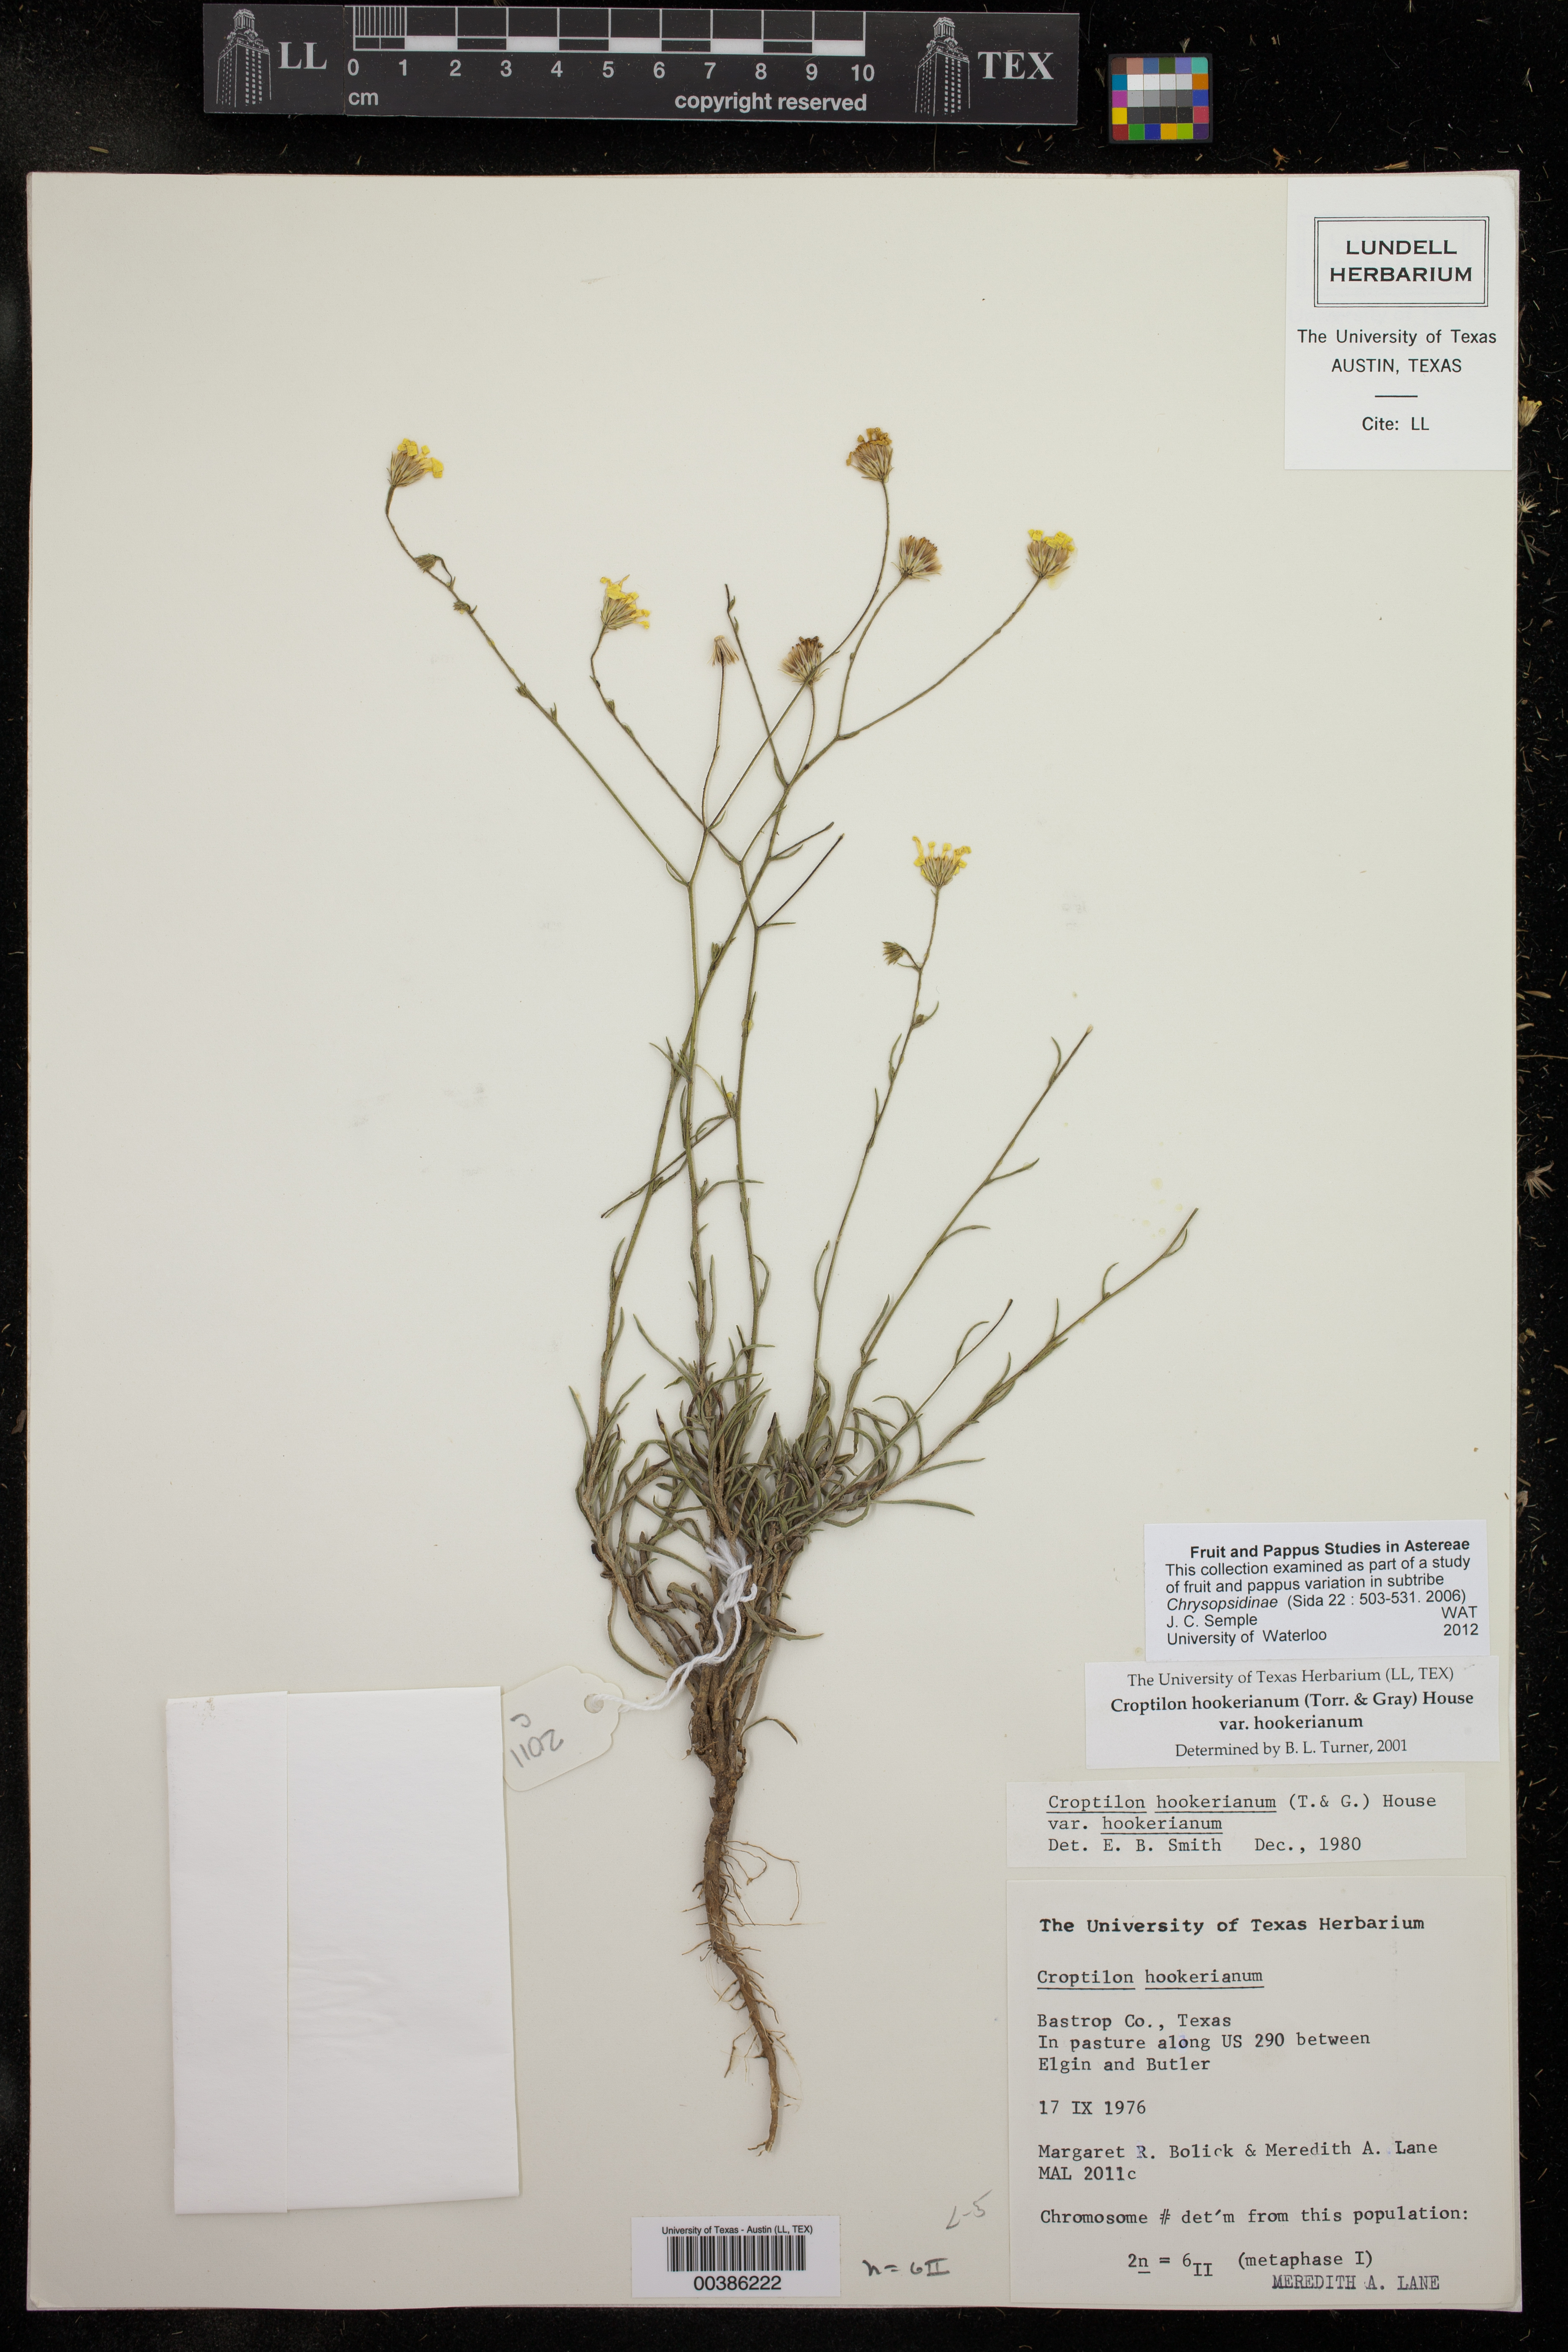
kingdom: Plantae
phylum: Tracheophyta
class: Magnoliopsida
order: Asterales
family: Asteraceae
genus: Croptilon
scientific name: Croptilon hookerianum
